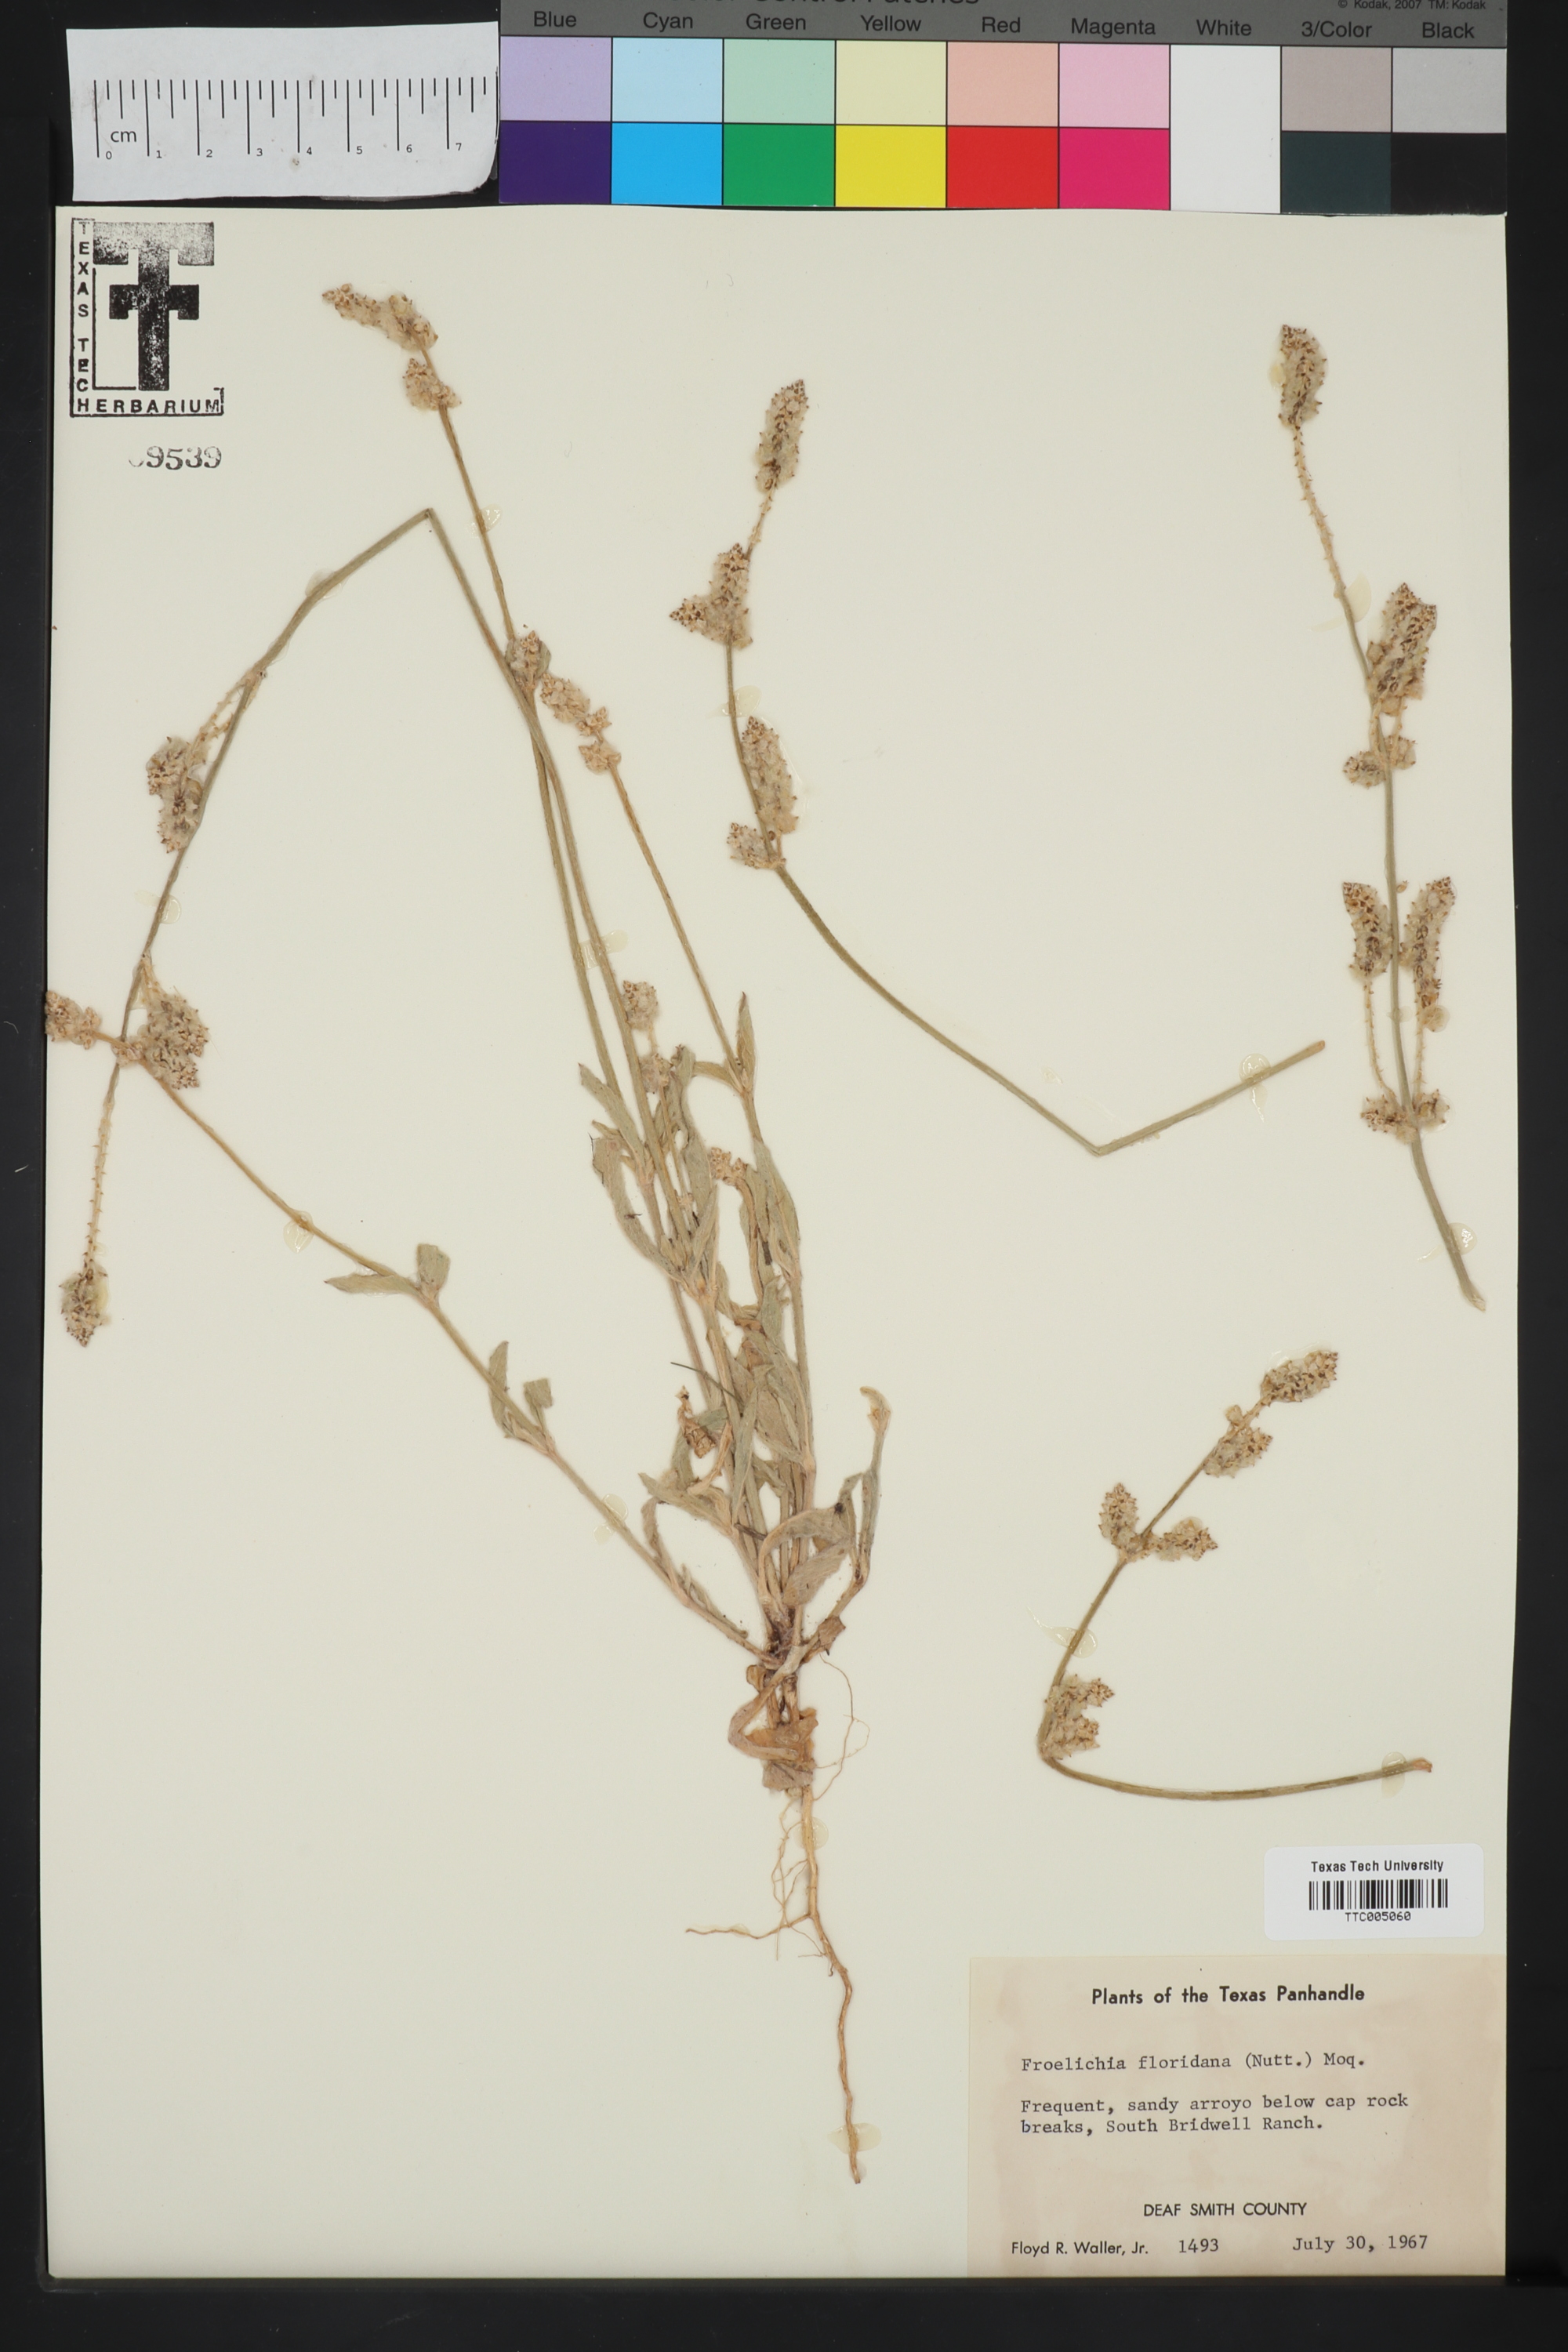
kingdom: Plantae
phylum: Tracheophyta
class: Magnoliopsida
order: Caryophyllales
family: Amaranthaceae
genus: Froelichia
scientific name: Froelichia floridana
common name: Florida snake-cotton
